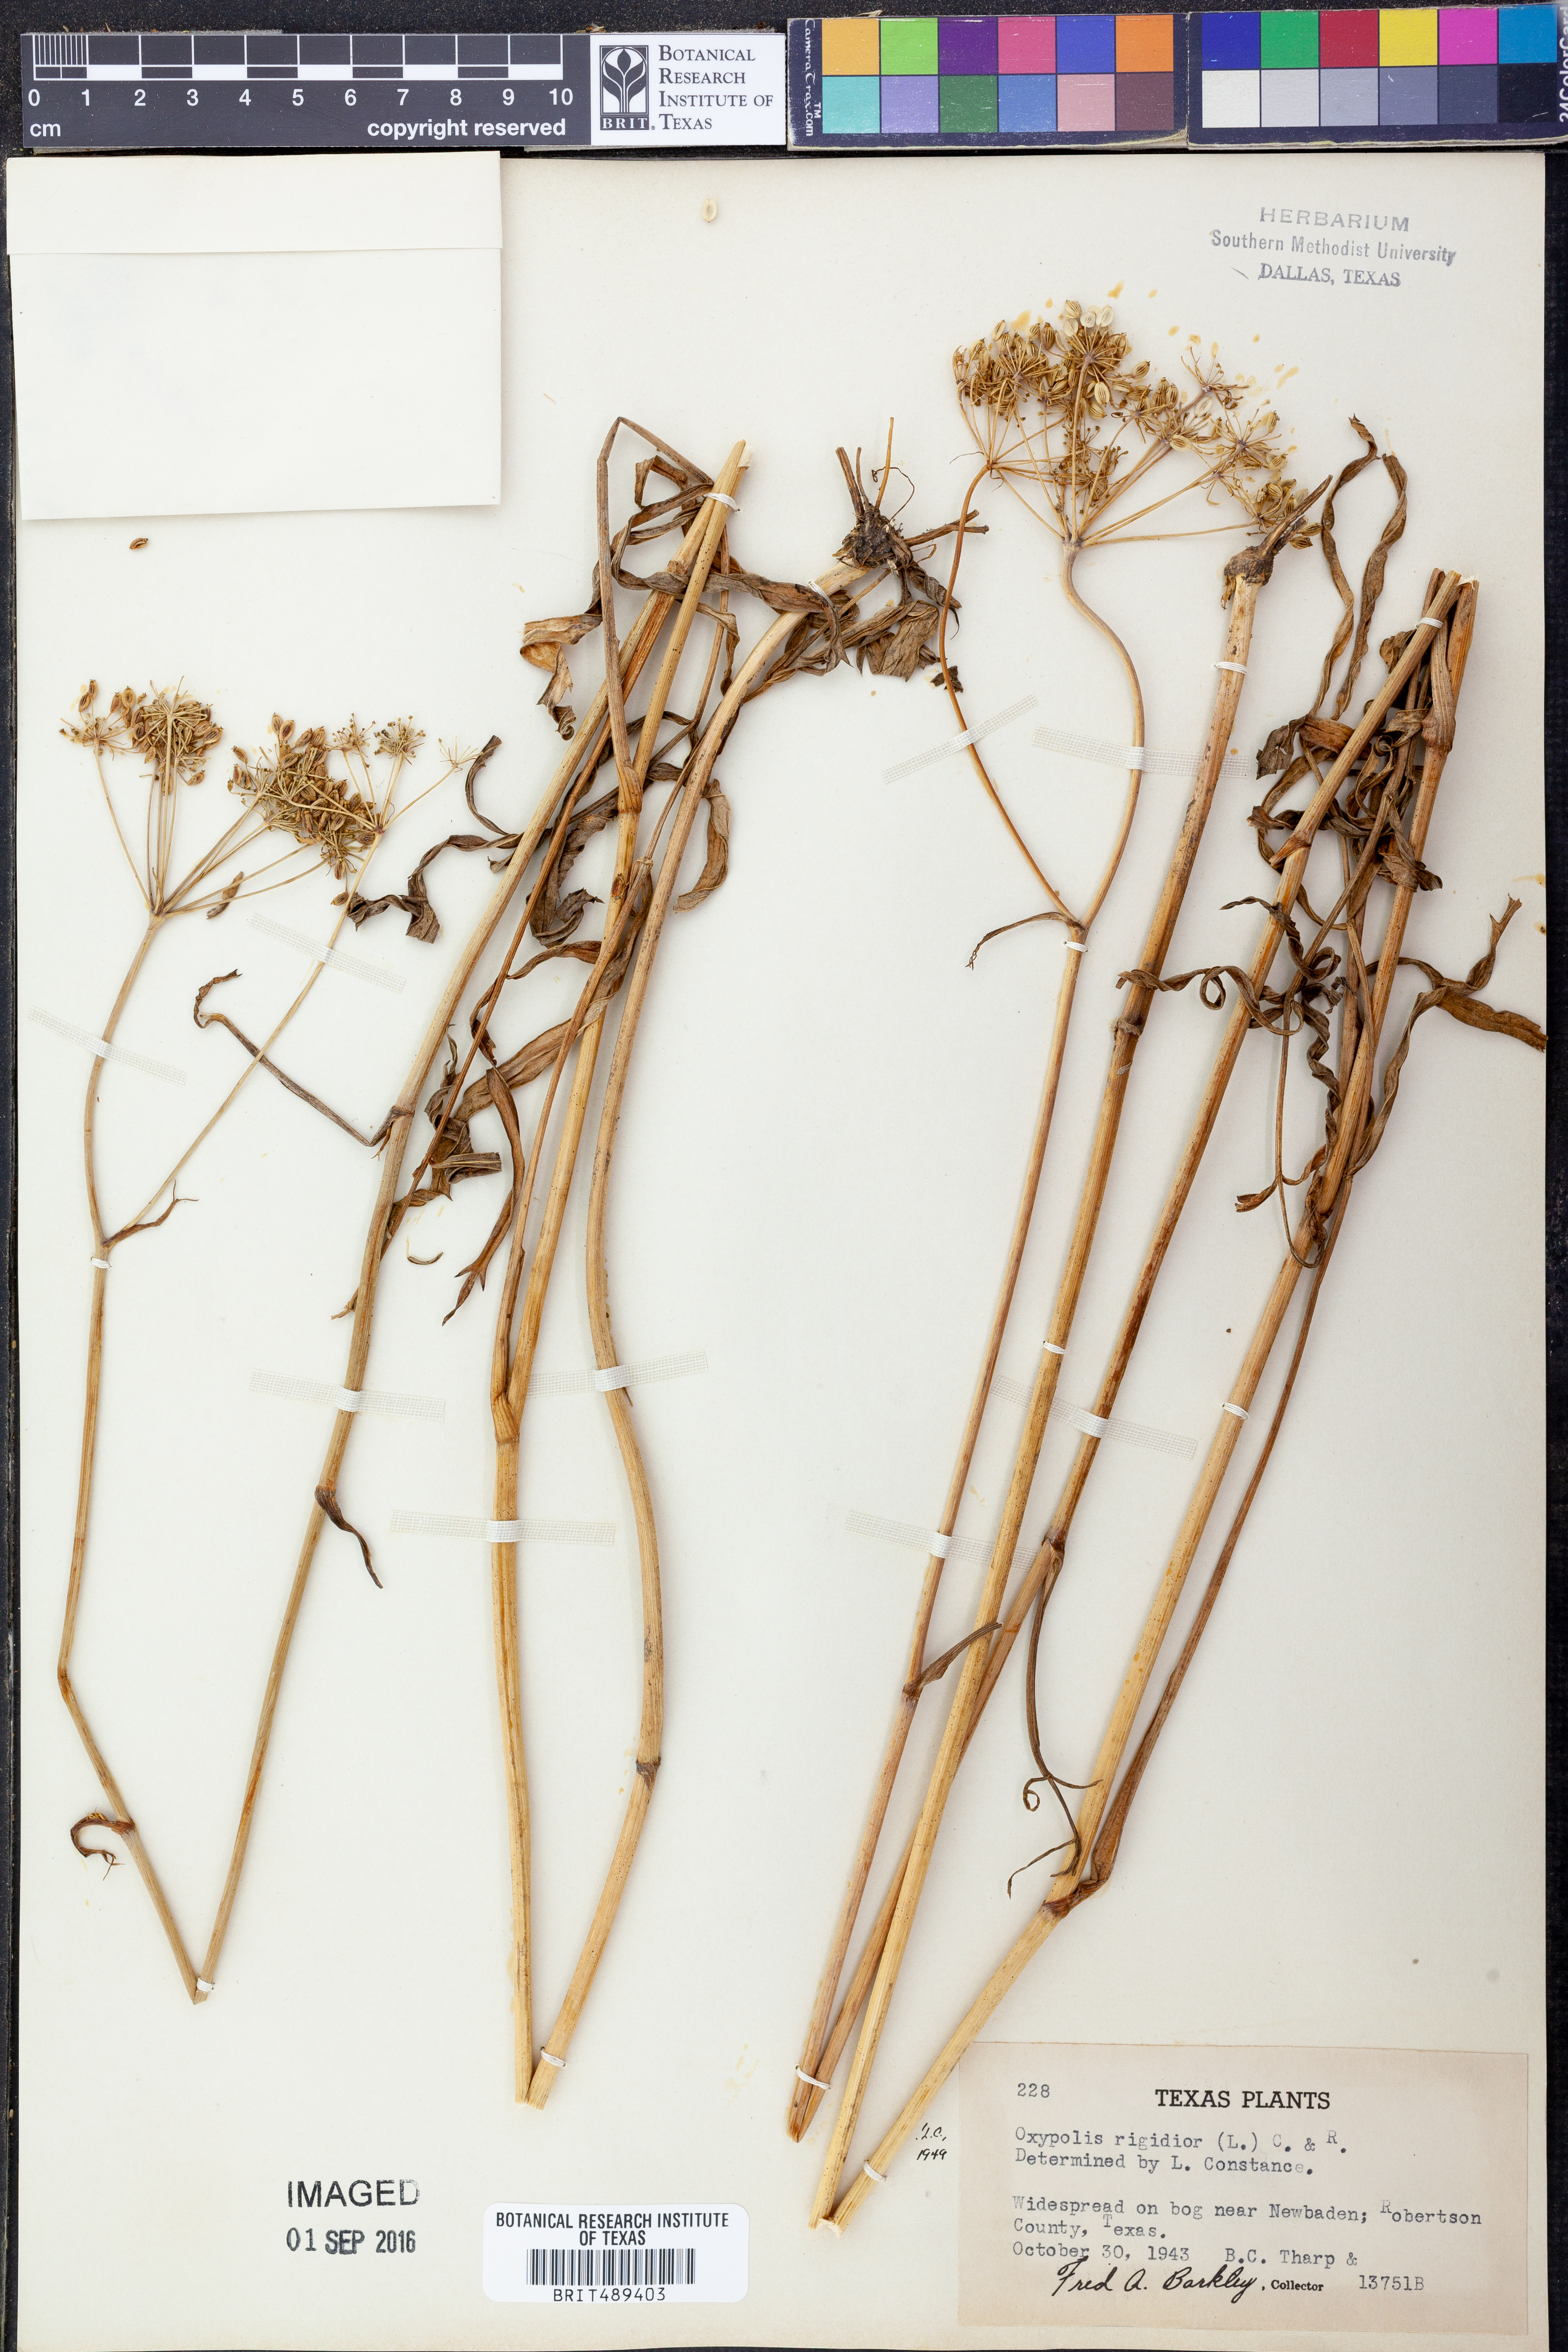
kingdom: Plantae
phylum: Tracheophyta
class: Magnoliopsida
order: Apiales
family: Apiaceae
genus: Oxypolis
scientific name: Oxypolis rigidior
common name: Cowbane
